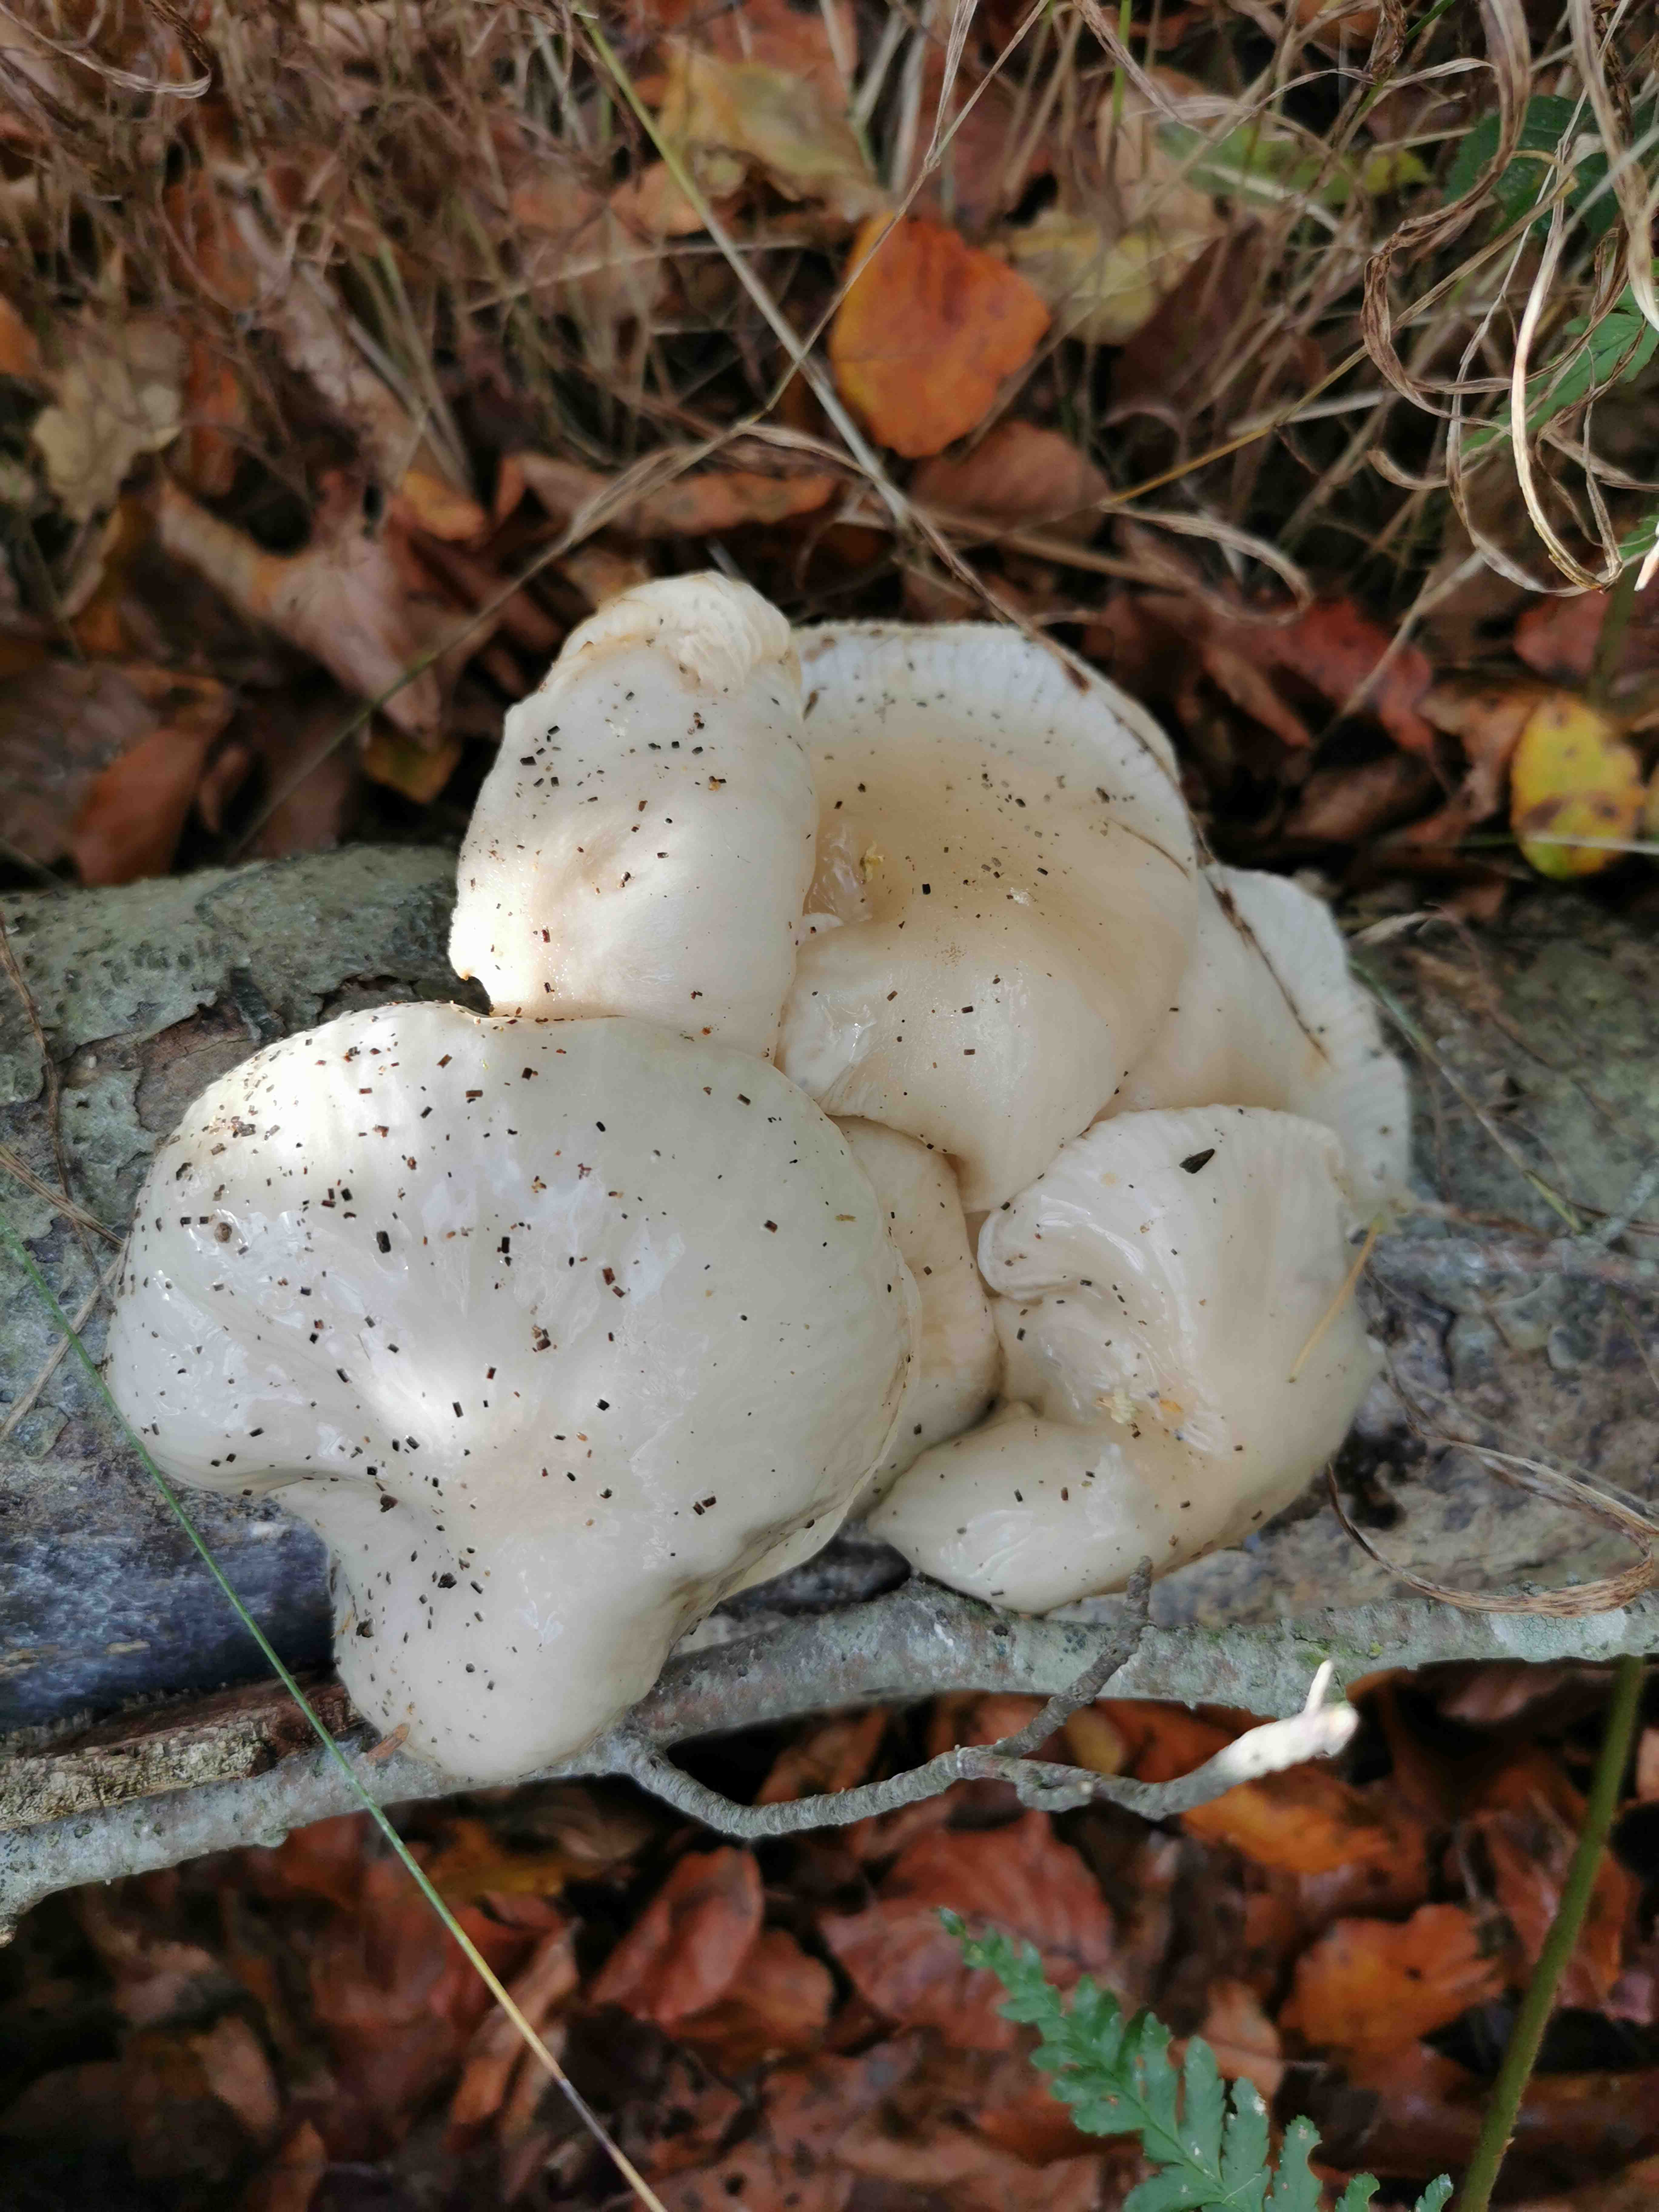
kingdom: Fungi
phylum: Basidiomycota
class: Agaricomycetes
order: Agaricales
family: Physalacriaceae
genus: Mucidula
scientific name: Mucidula mucida
